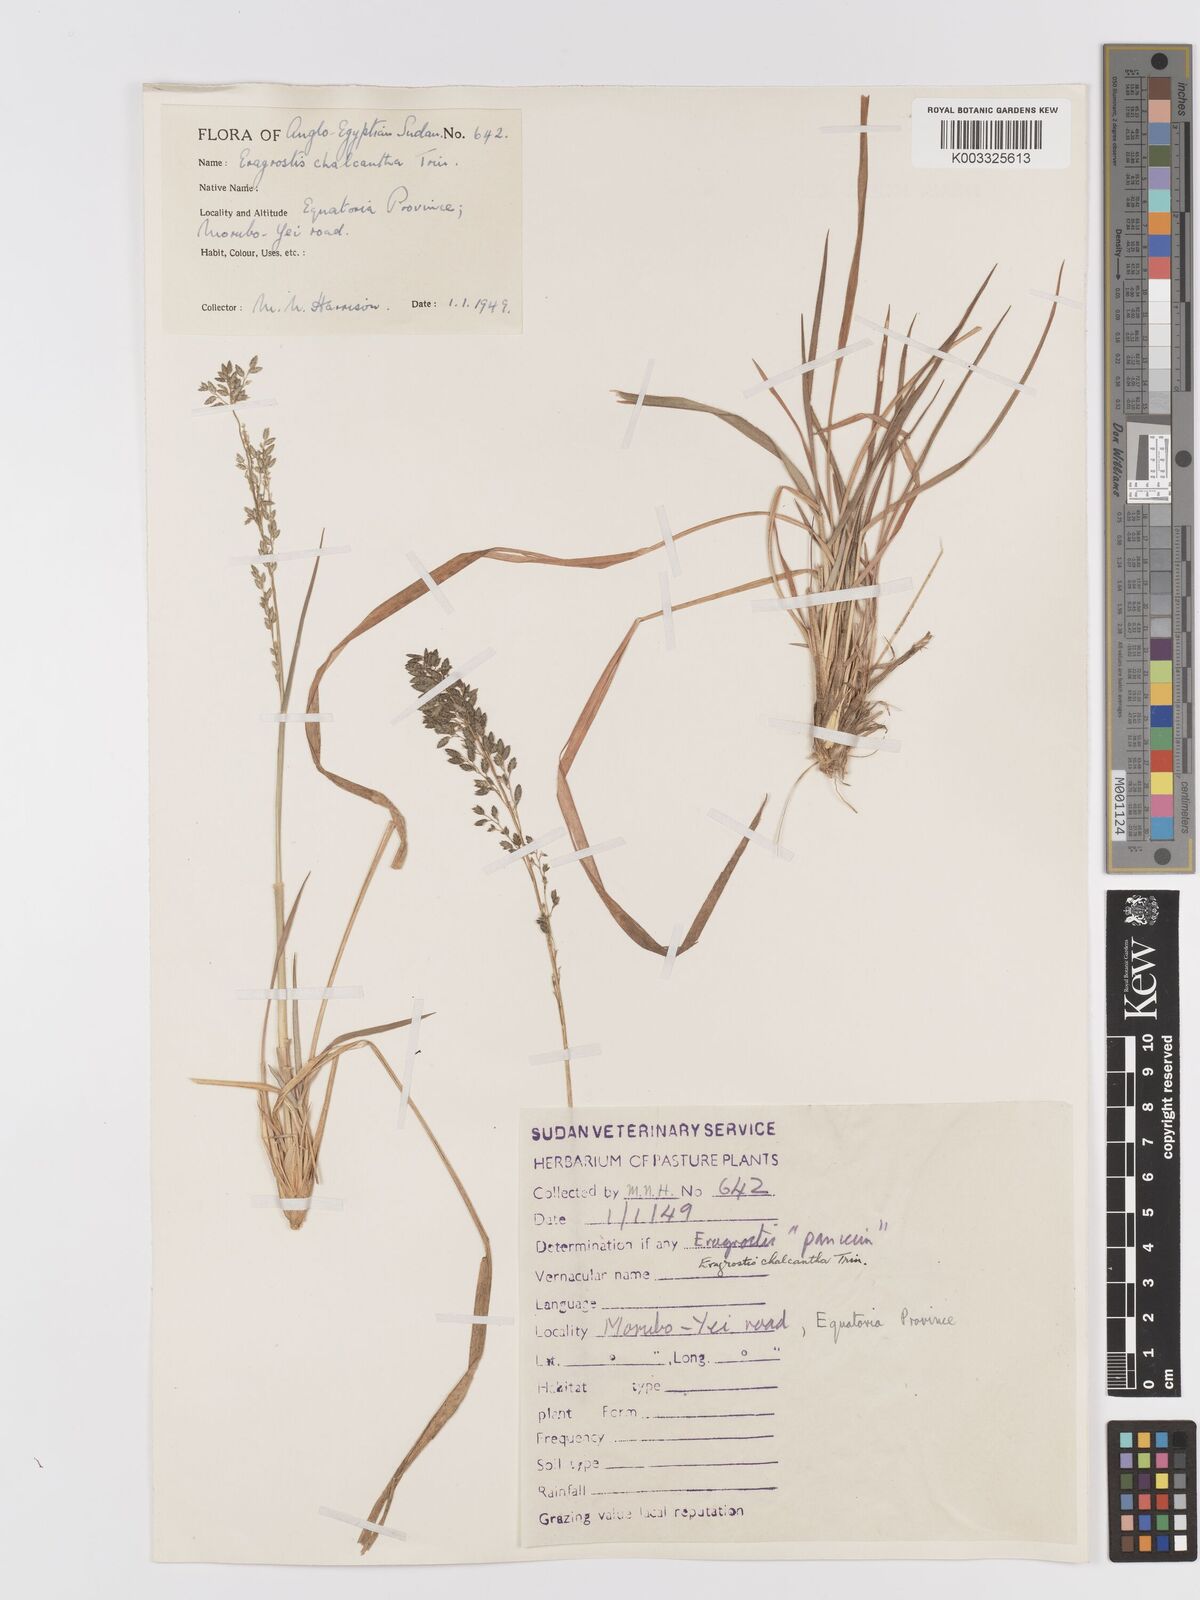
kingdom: Plantae
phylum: Tracheophyta
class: Liliopsida
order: Poales
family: Poaceae
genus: Eragrostis
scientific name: Eragrostis racemosa
